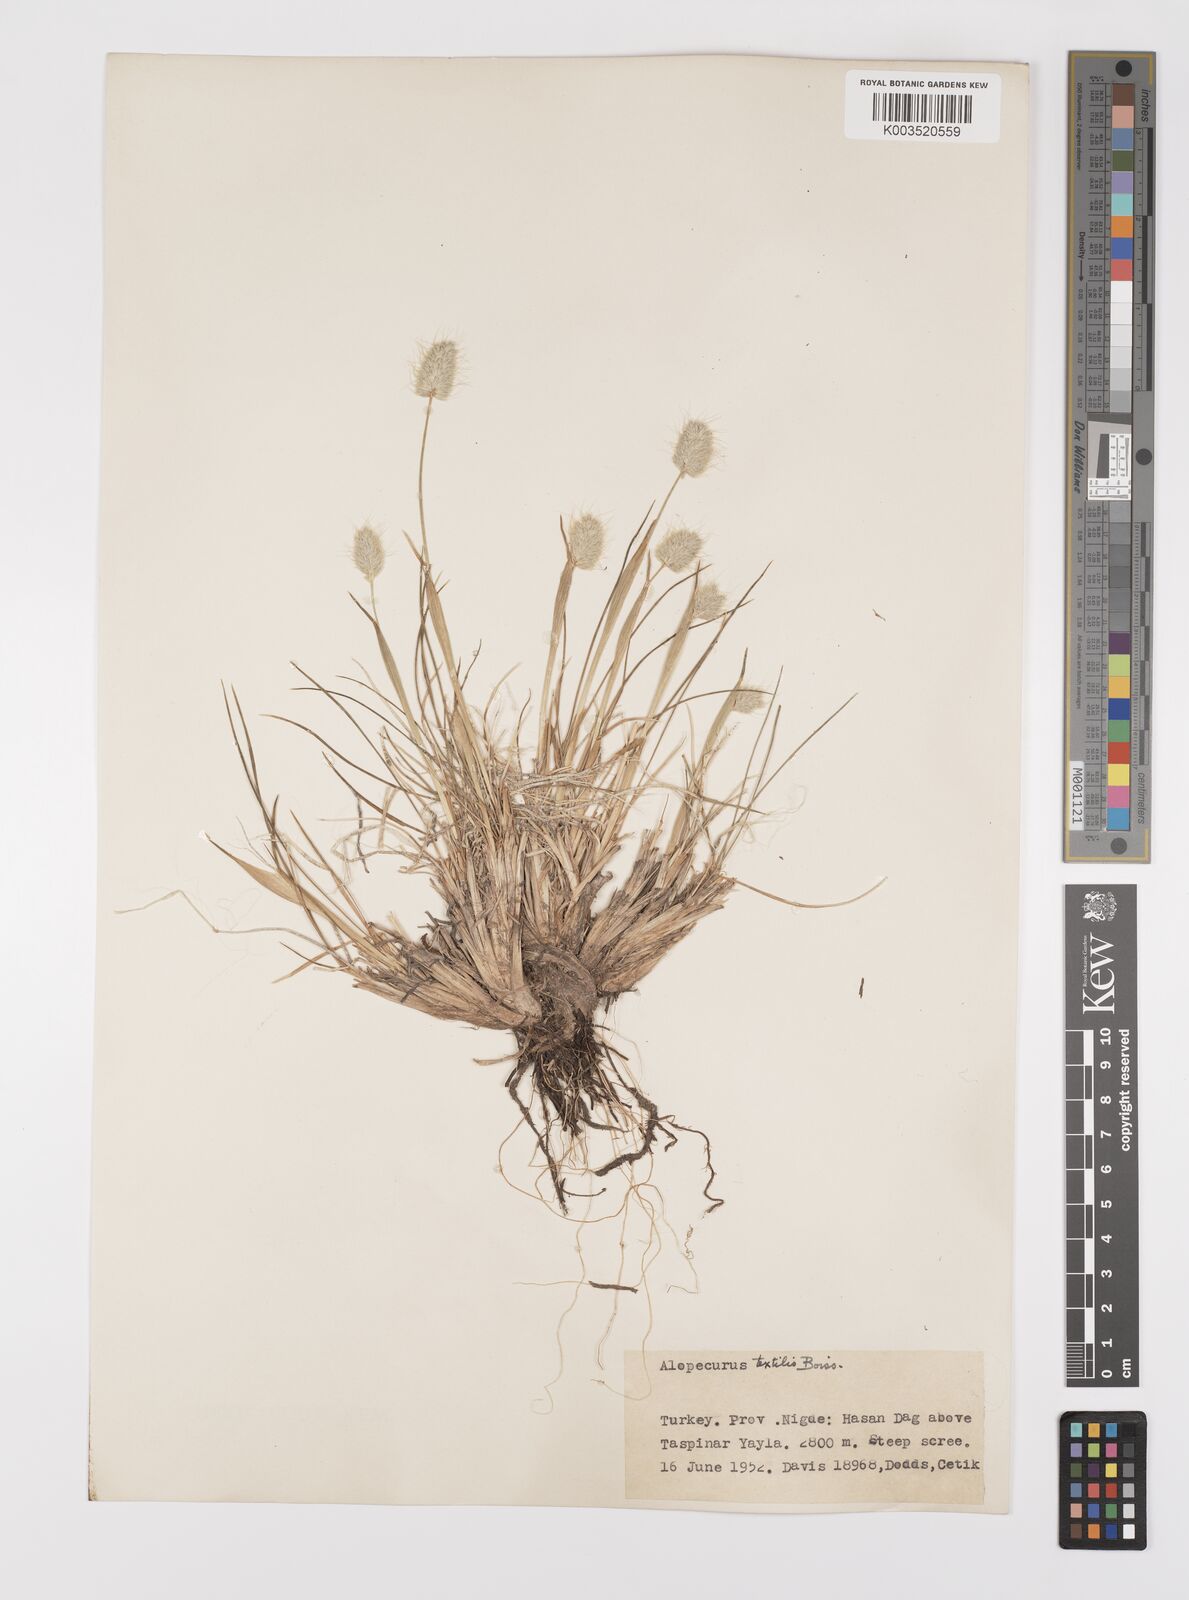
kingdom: Plantae
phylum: Tracheophyta
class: Liliopsida
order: Poales
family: Poaceae
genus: Alopecurus
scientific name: Alopecurus textilis
